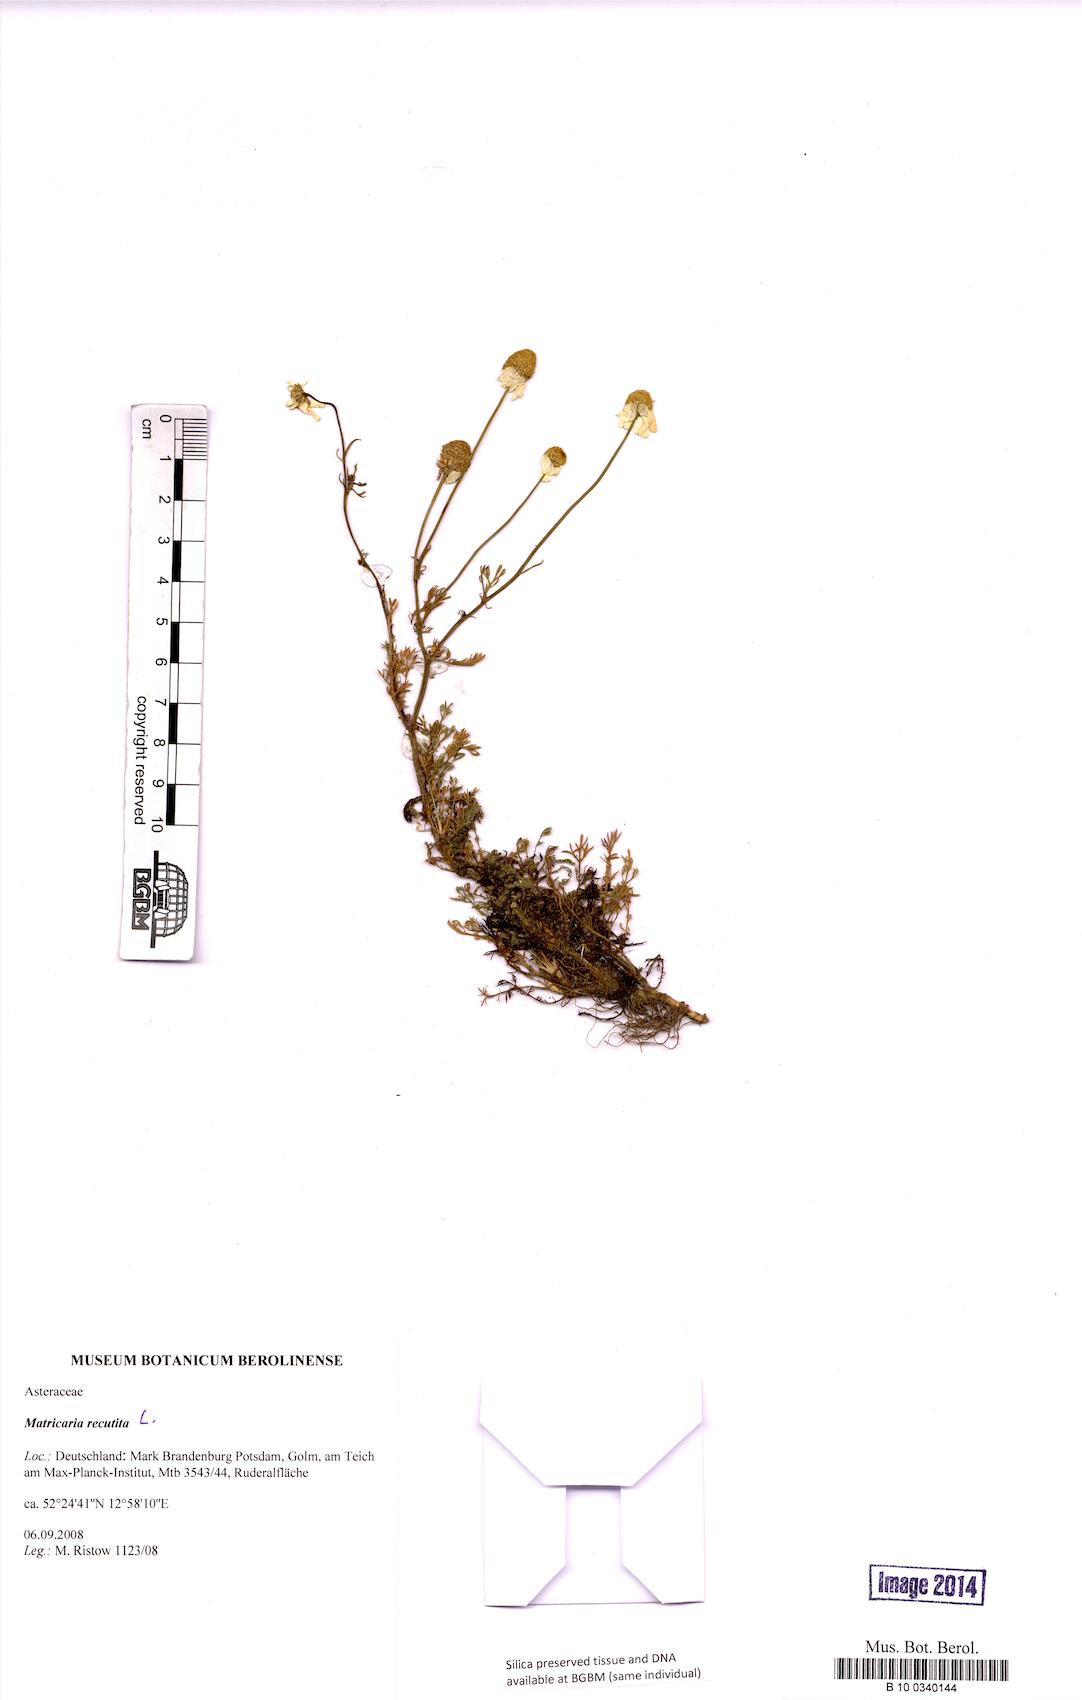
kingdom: Plantae
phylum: Tracheophyta
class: Magnoliopsida
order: Asterales
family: Asteraceae
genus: Matricaria
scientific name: Matricaria chamomilla
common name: Scented mayweed
